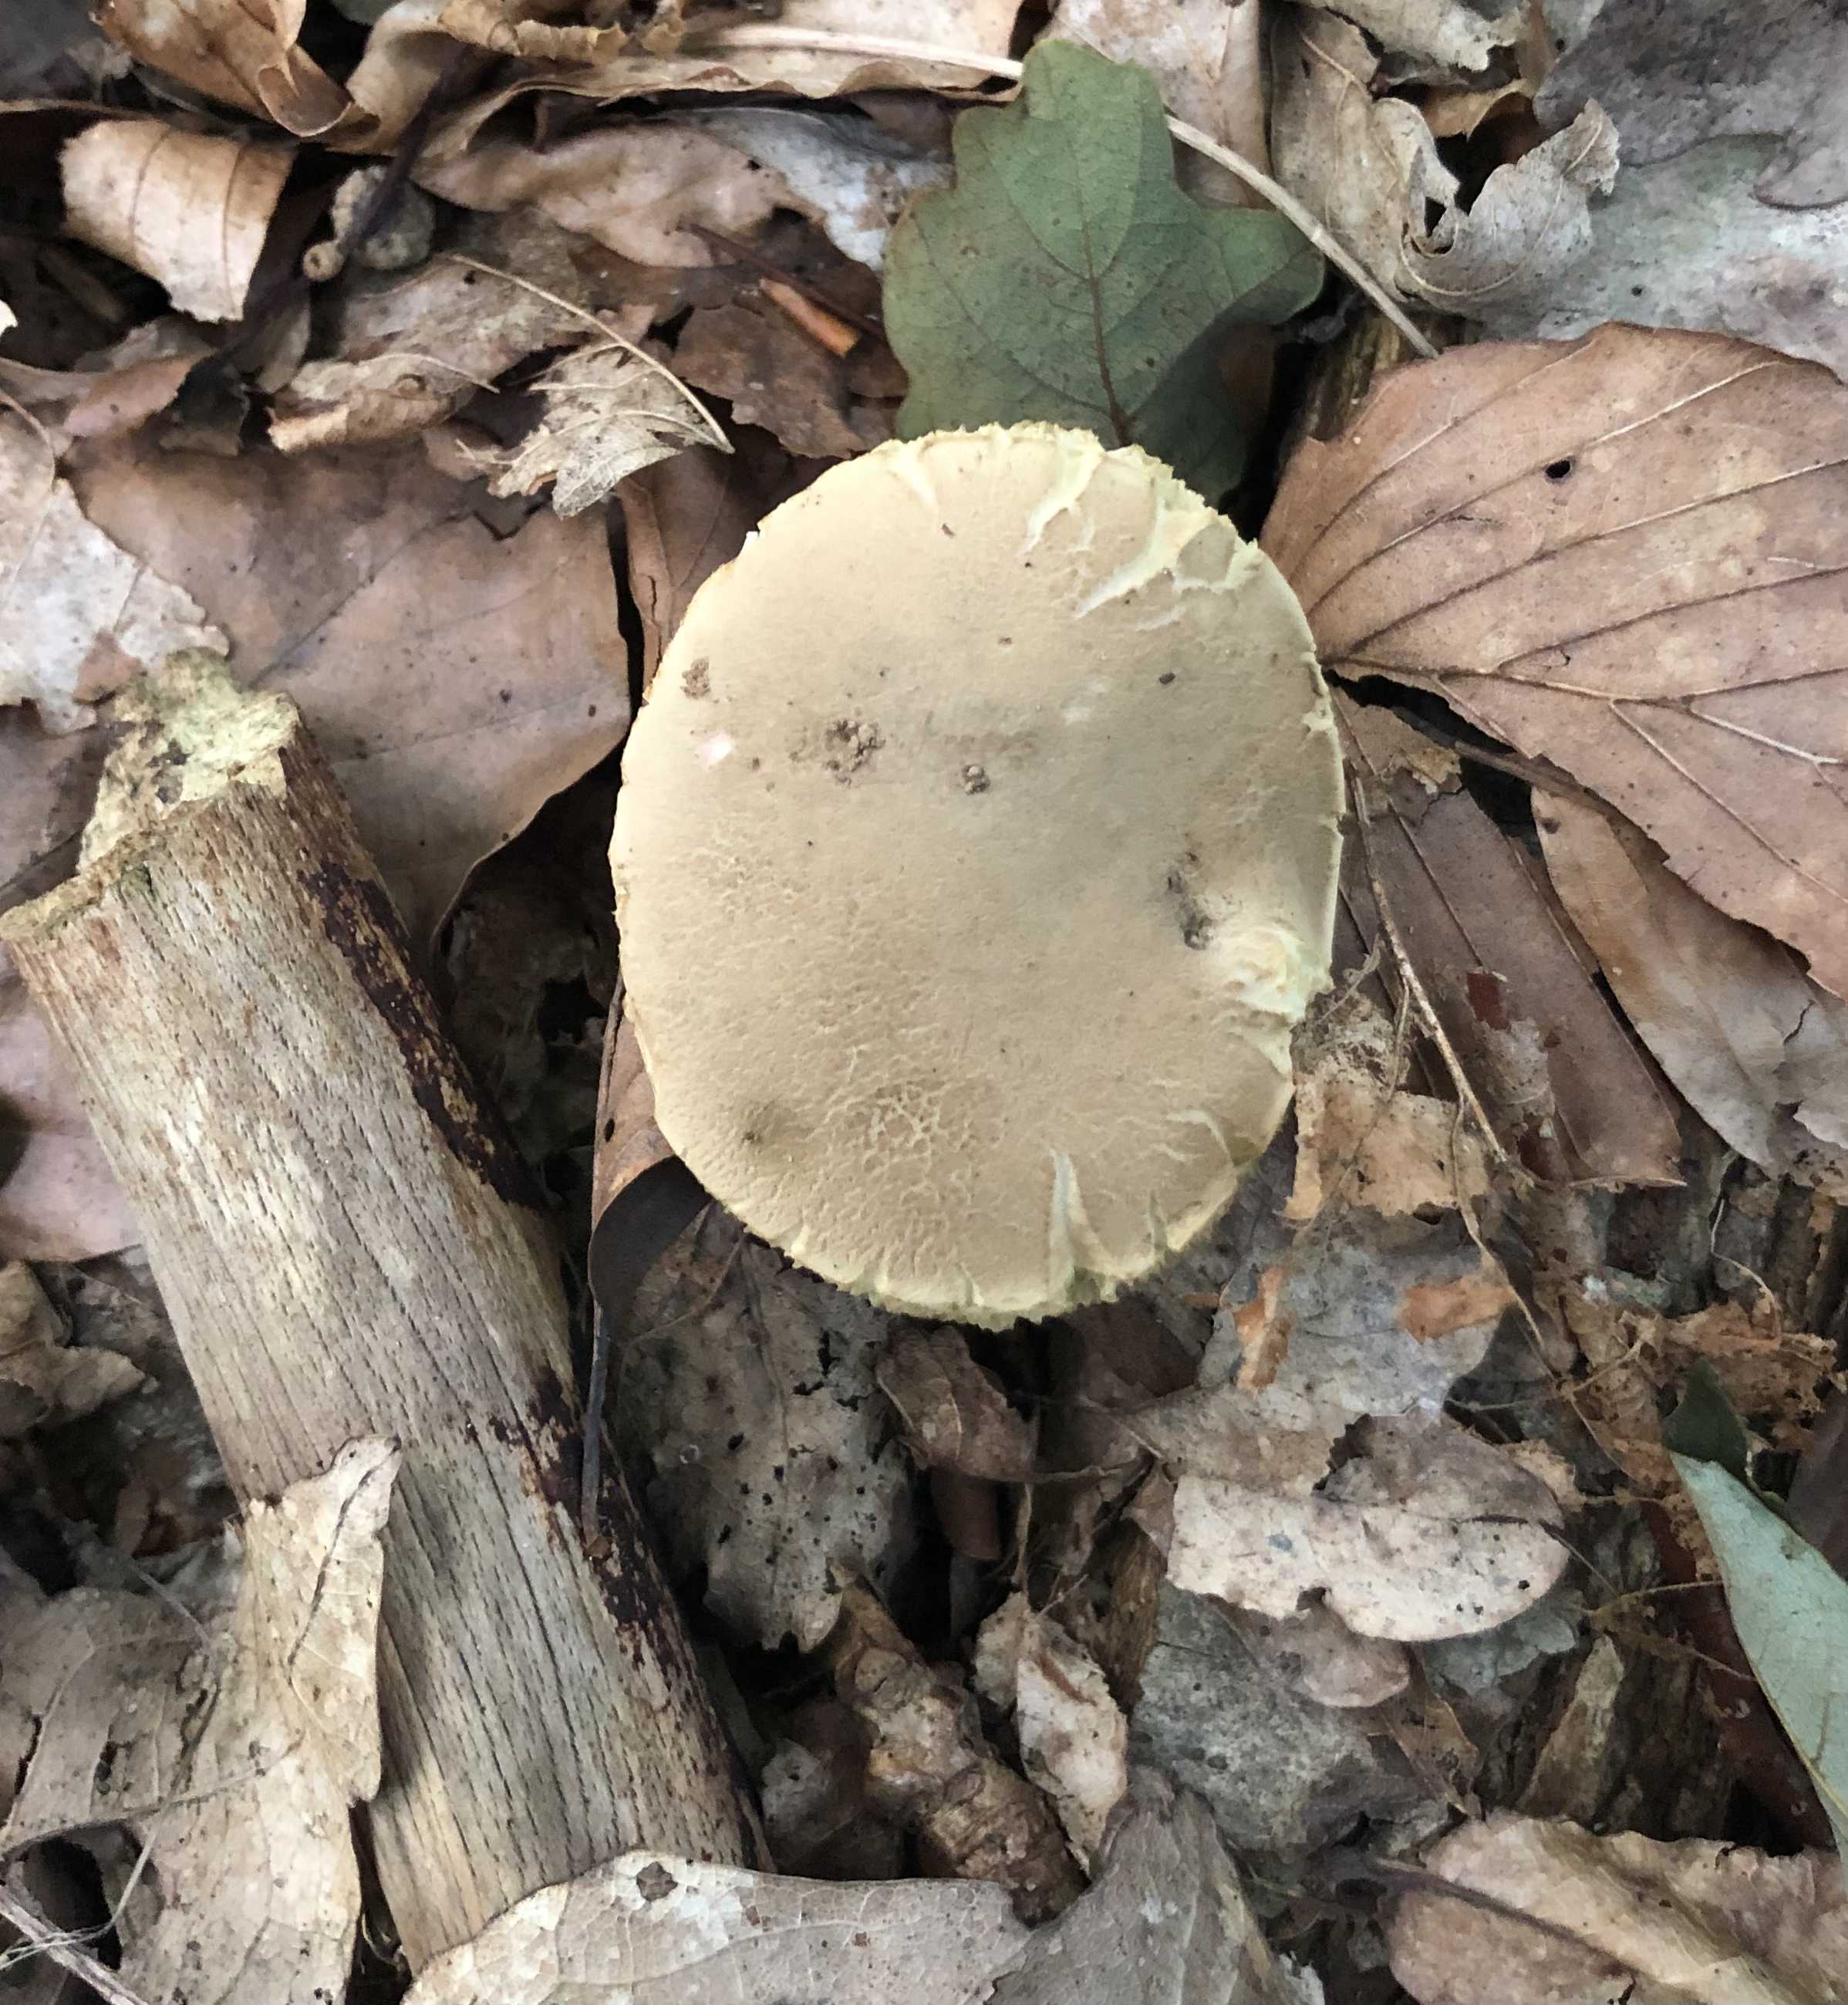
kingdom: Fungi
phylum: Basidiomycota
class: Agaricomycetes
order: Boletales
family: Boletaceae
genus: Xerocomus
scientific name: Xerocomus
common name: filtrørhat
